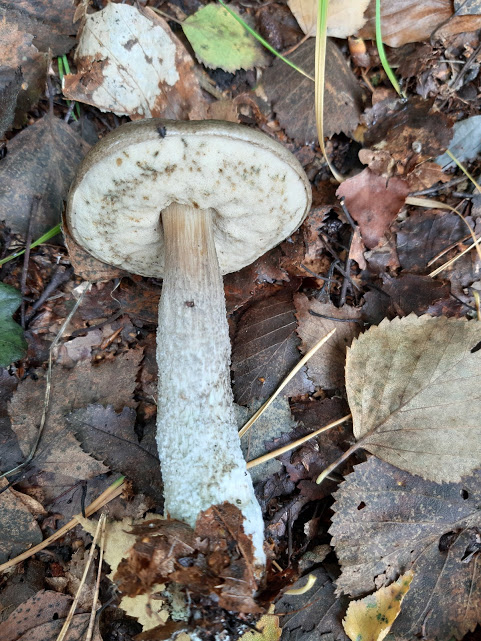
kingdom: Fungi
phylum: Basidiomycota
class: Agaricomycetes
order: Boletales
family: Boletaceae
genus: Leccinum
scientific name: Leccinum variicolor
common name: flammet skælrørhat
